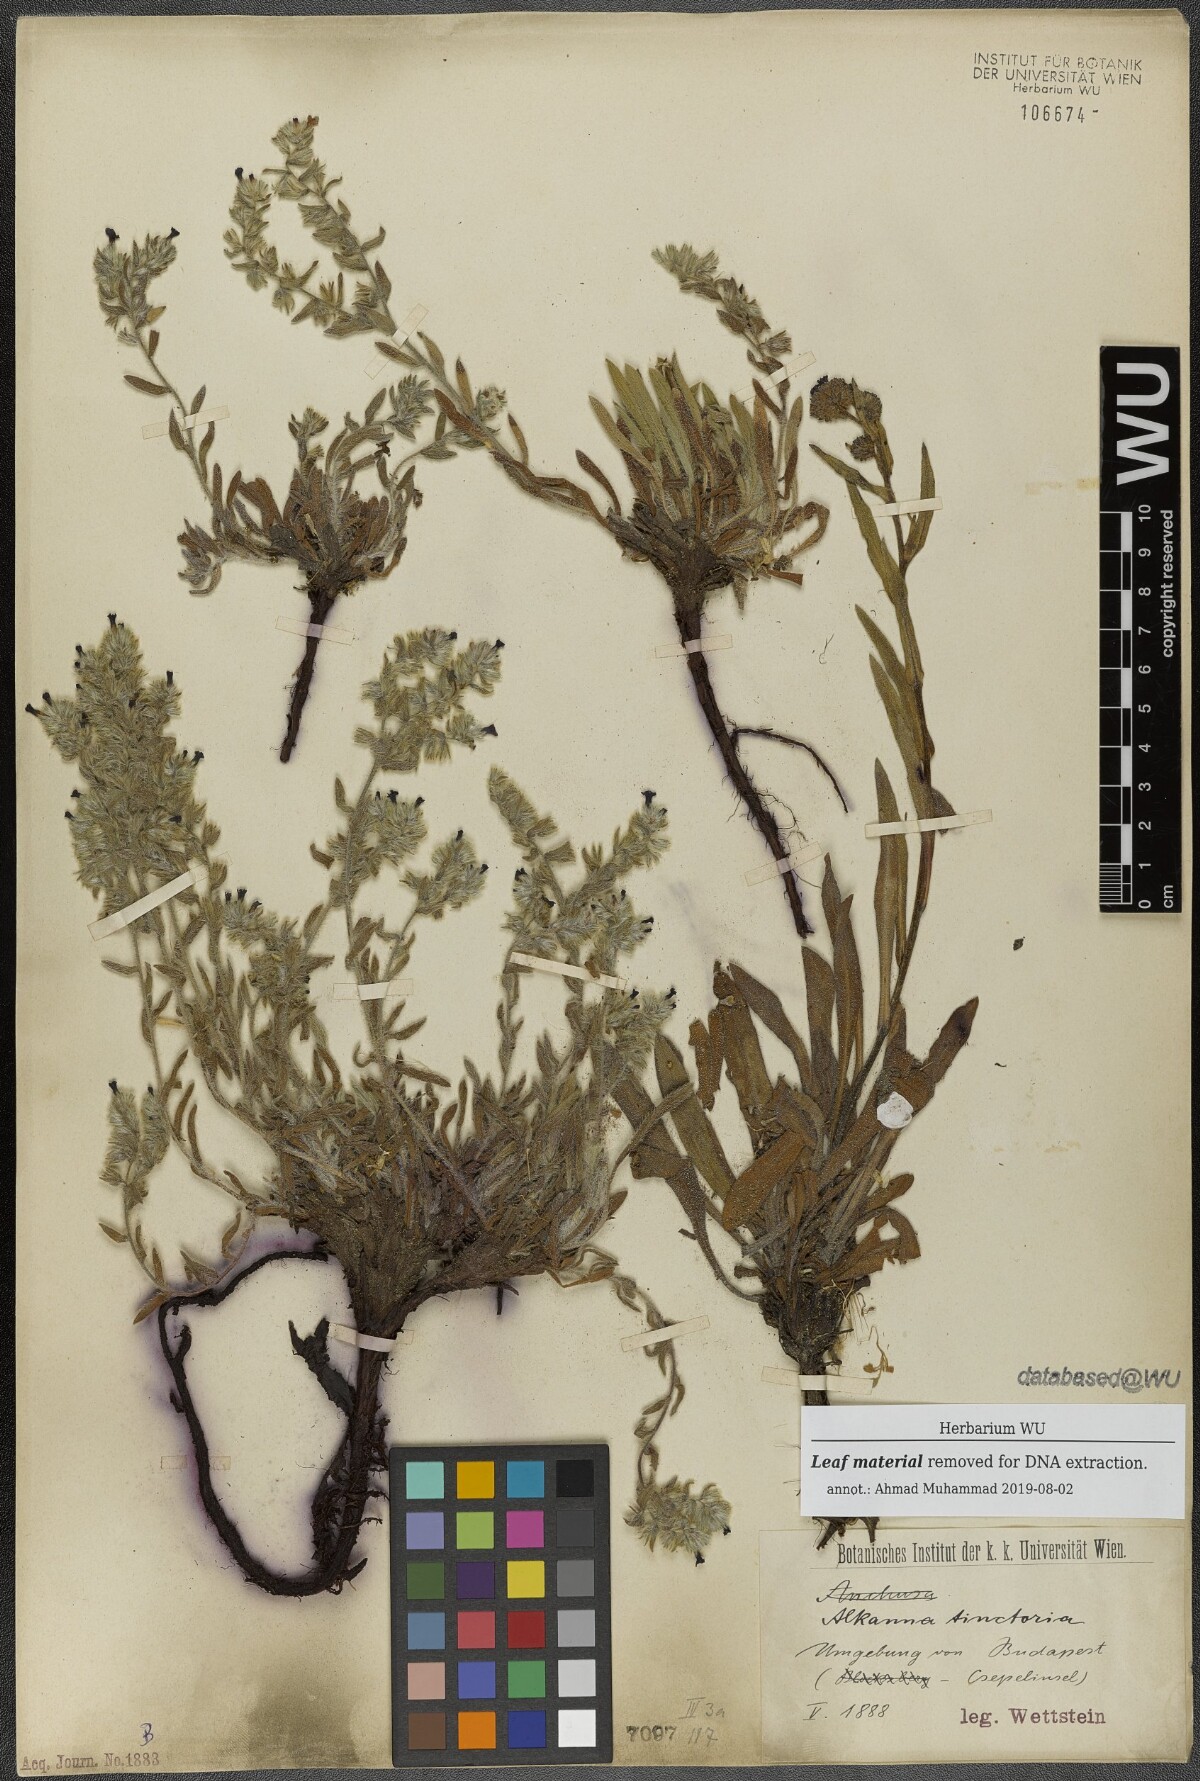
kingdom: Plantae
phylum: Tracheophyta
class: Magnoliopsida
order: Boraginales
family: Boraginaceae
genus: Alkanna
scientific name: Alkanna tinctoria
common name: Dyer's-alkanet
